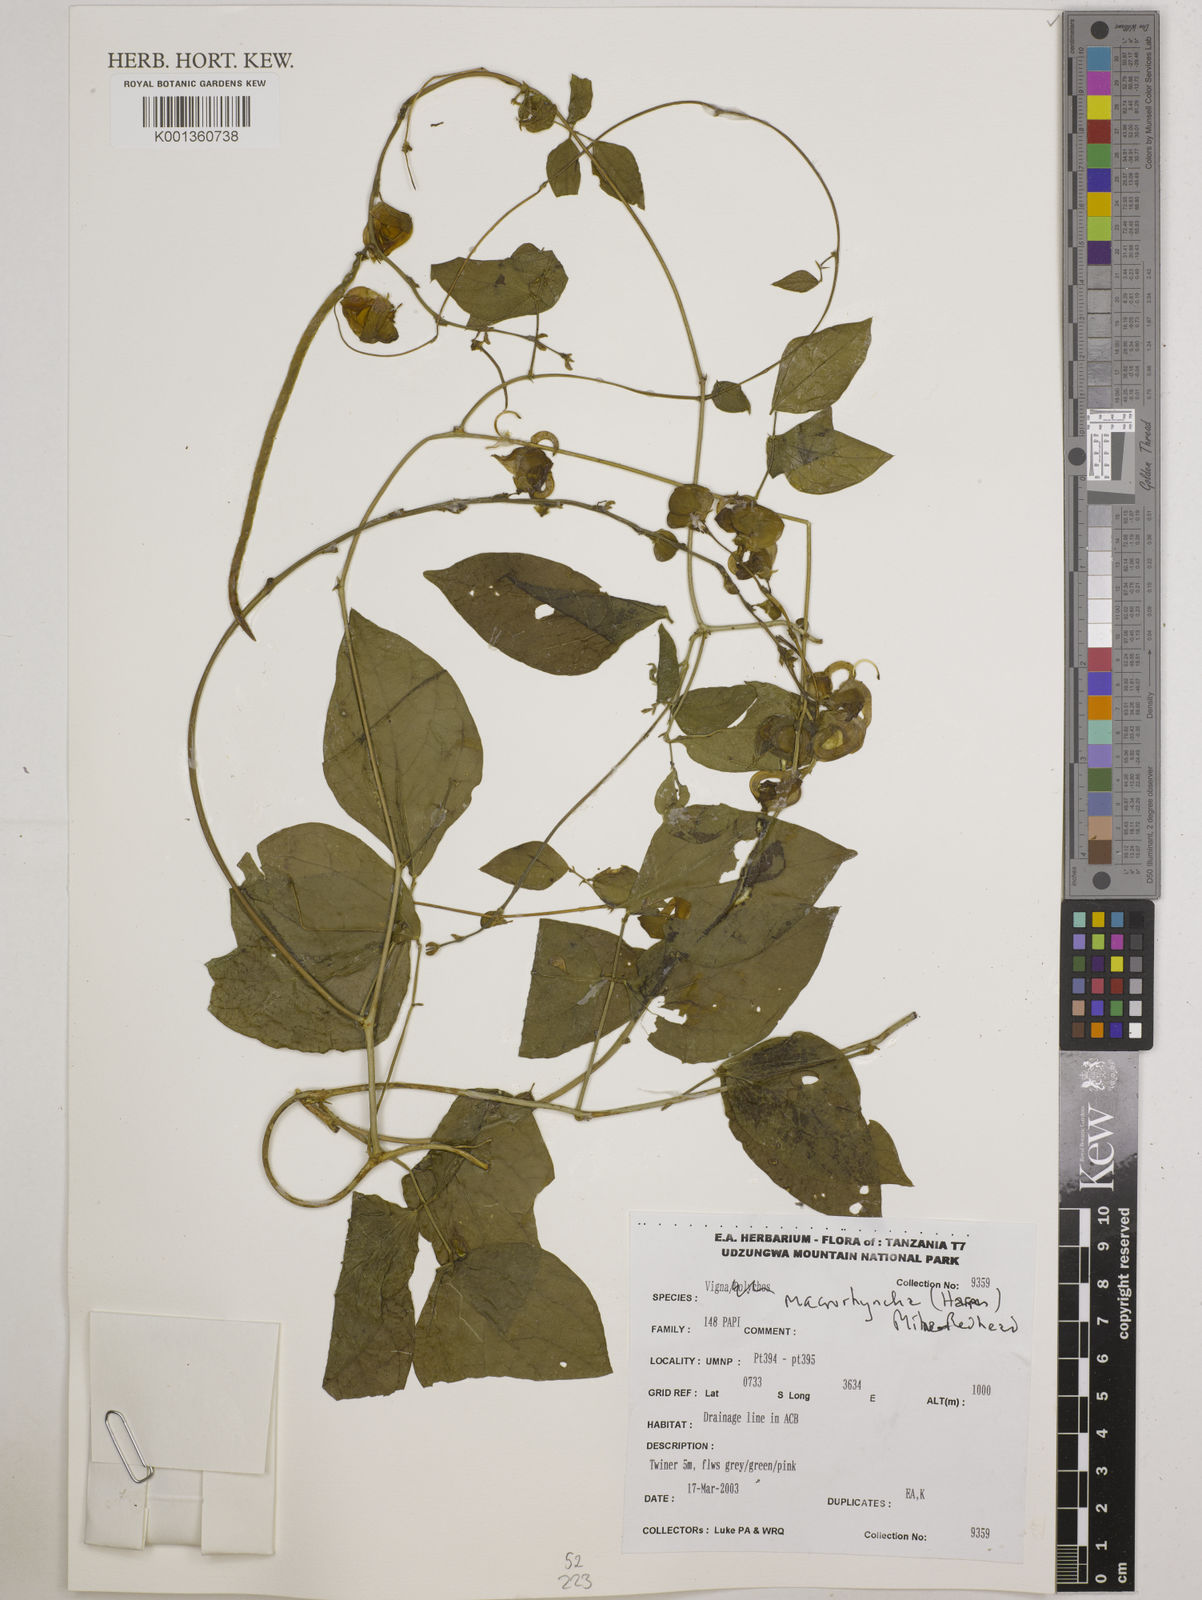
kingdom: Plantae
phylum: Tracheophyta
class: Magnoliopsida
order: Fabales
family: Fabaceae
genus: Wajira
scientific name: Wajira grahamiana
